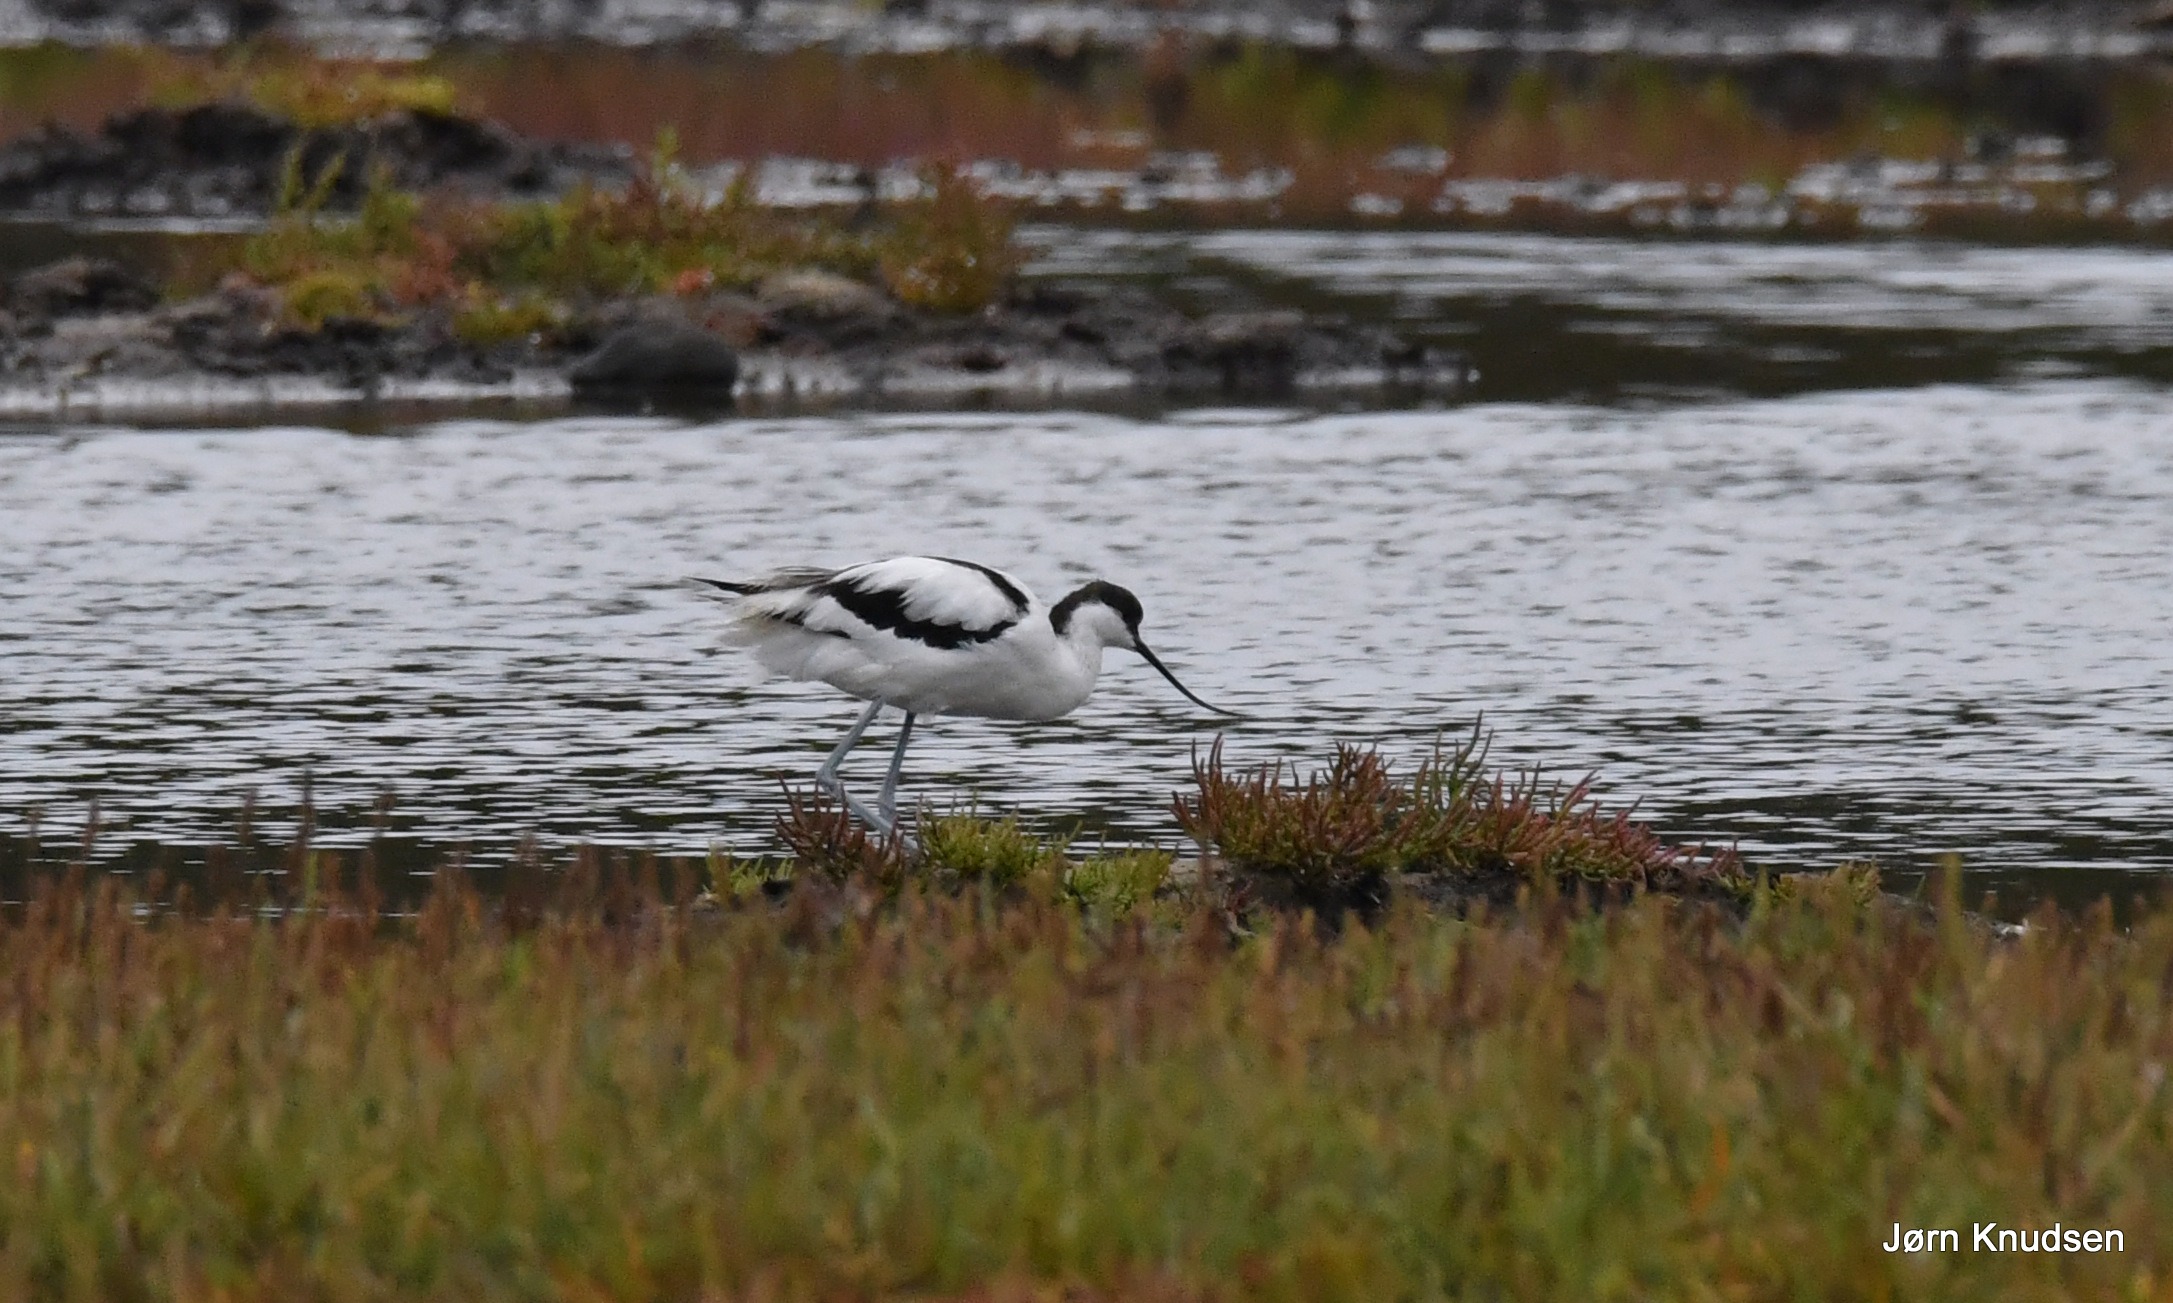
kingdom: Animalia
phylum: Chordata
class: Aves
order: Charadriiformes
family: Recurvirostridae
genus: Recurvirostra
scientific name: Recurvirostra avosetta
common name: Klyde
